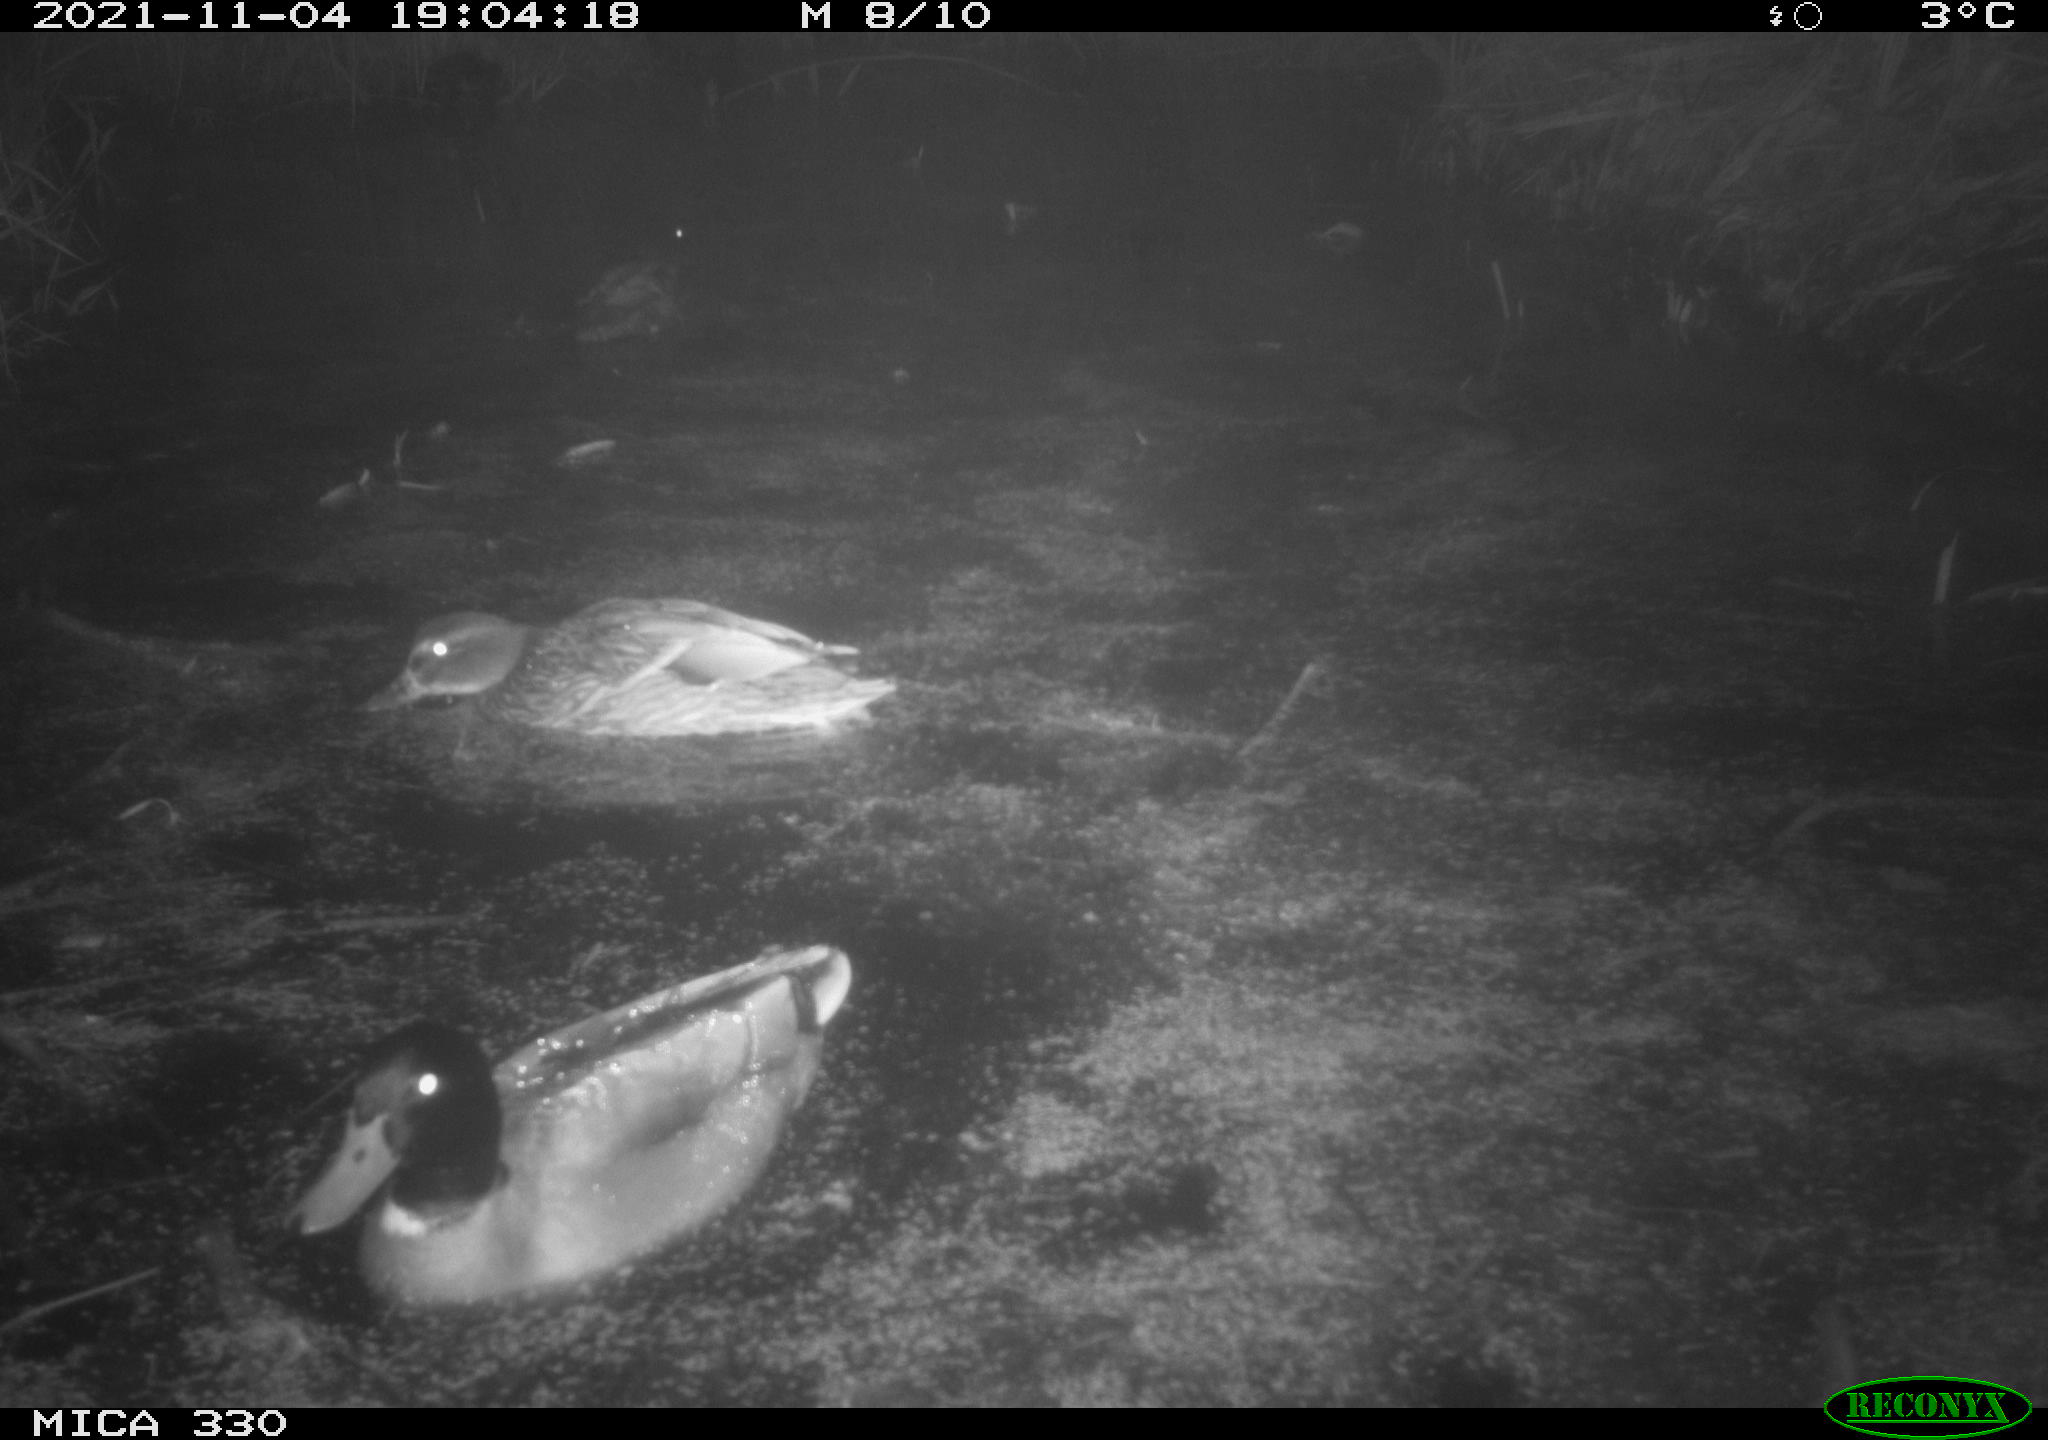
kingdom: Animalia
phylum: Chordata
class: Aves
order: Anseriformes
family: Anatidae
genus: Anas
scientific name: Anas platyrhynchos
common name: Mallard
